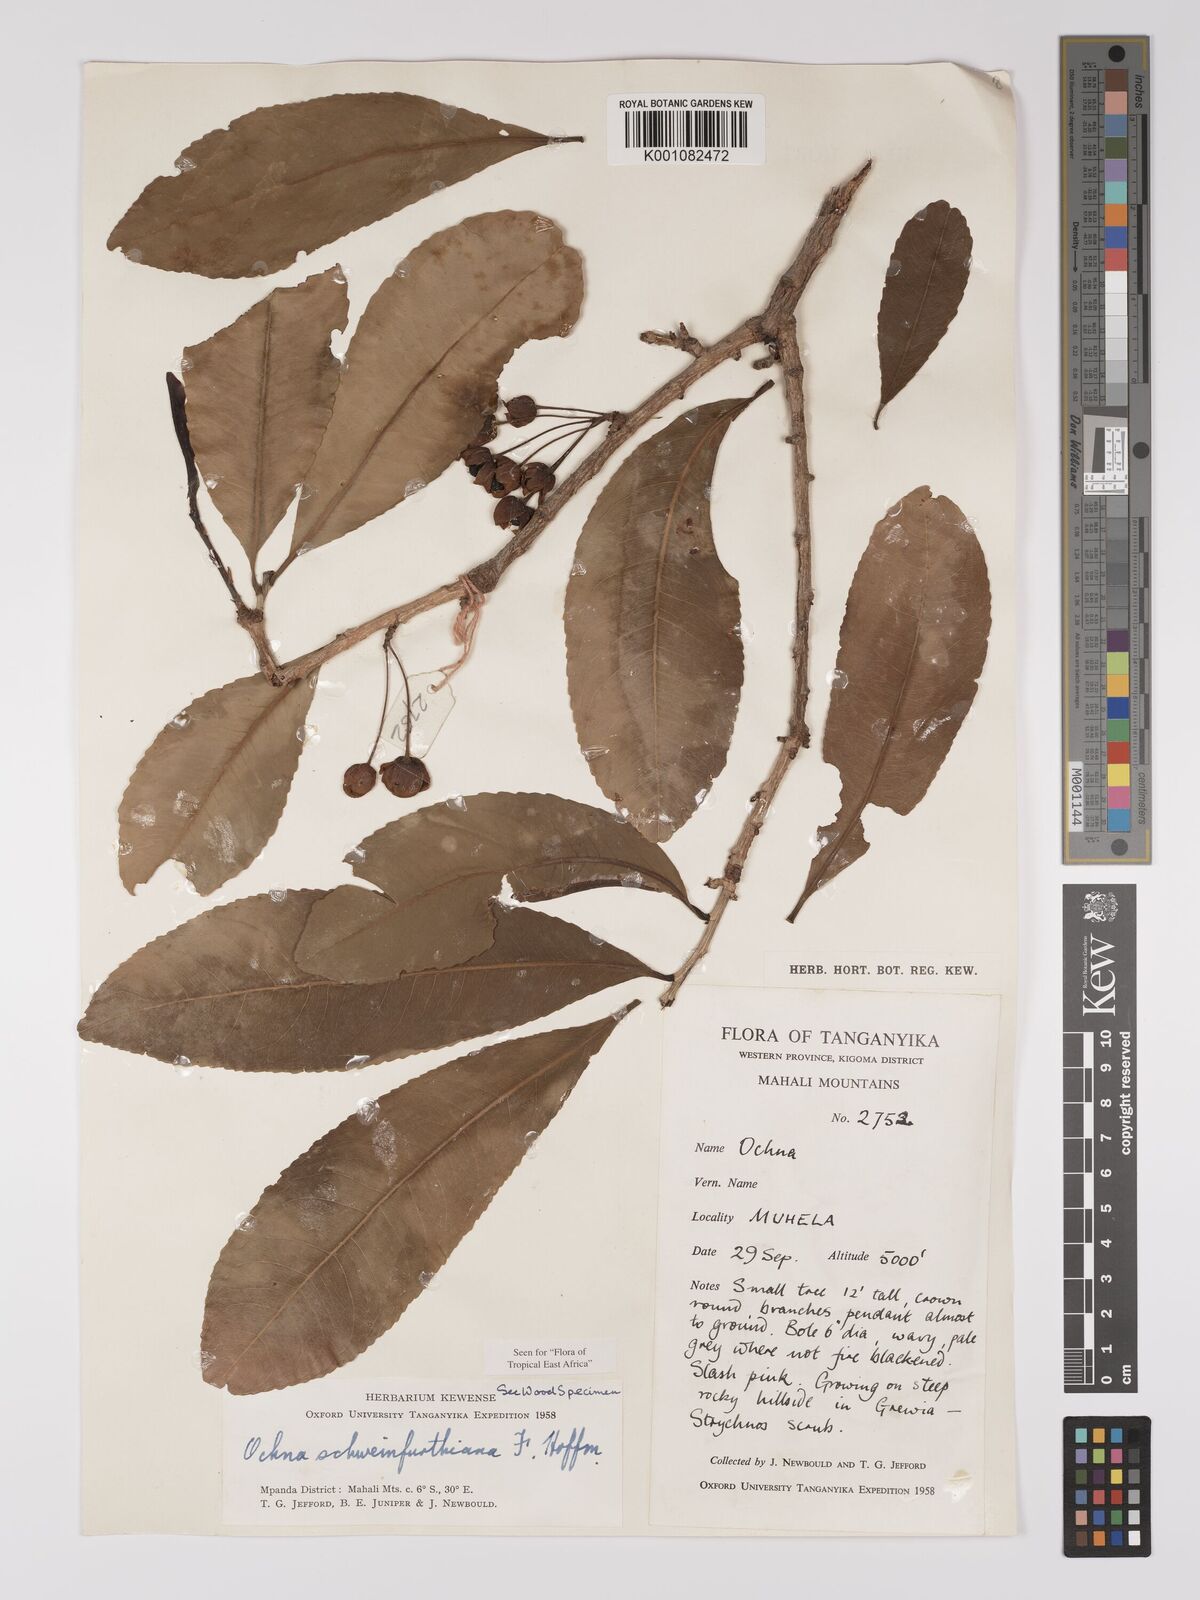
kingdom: Plantae
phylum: Tracheophyta
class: Magnoliopsida
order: Malpighiales
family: Ochnaceae
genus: Ochna
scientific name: Ochna schweinfurthiana
